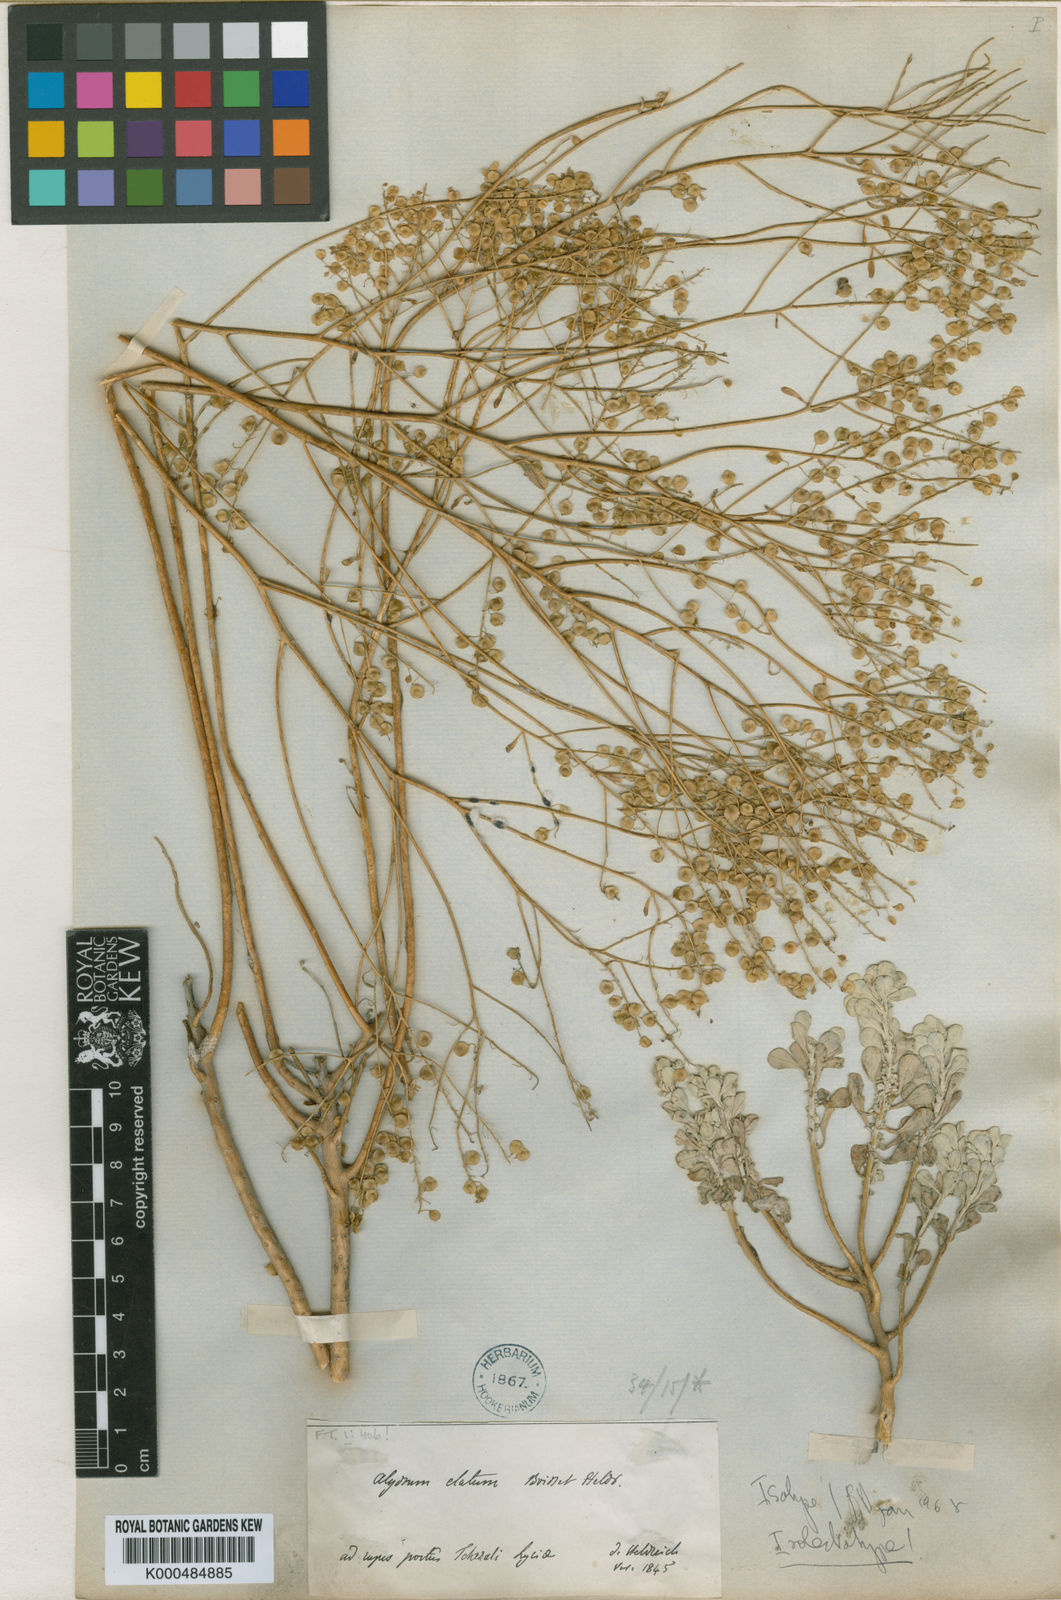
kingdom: Plantae
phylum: Tracheophyta
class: Magnoliopsida
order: Brassicales
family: Brassicaceae
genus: Odontarrhena
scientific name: Odontarrhena
